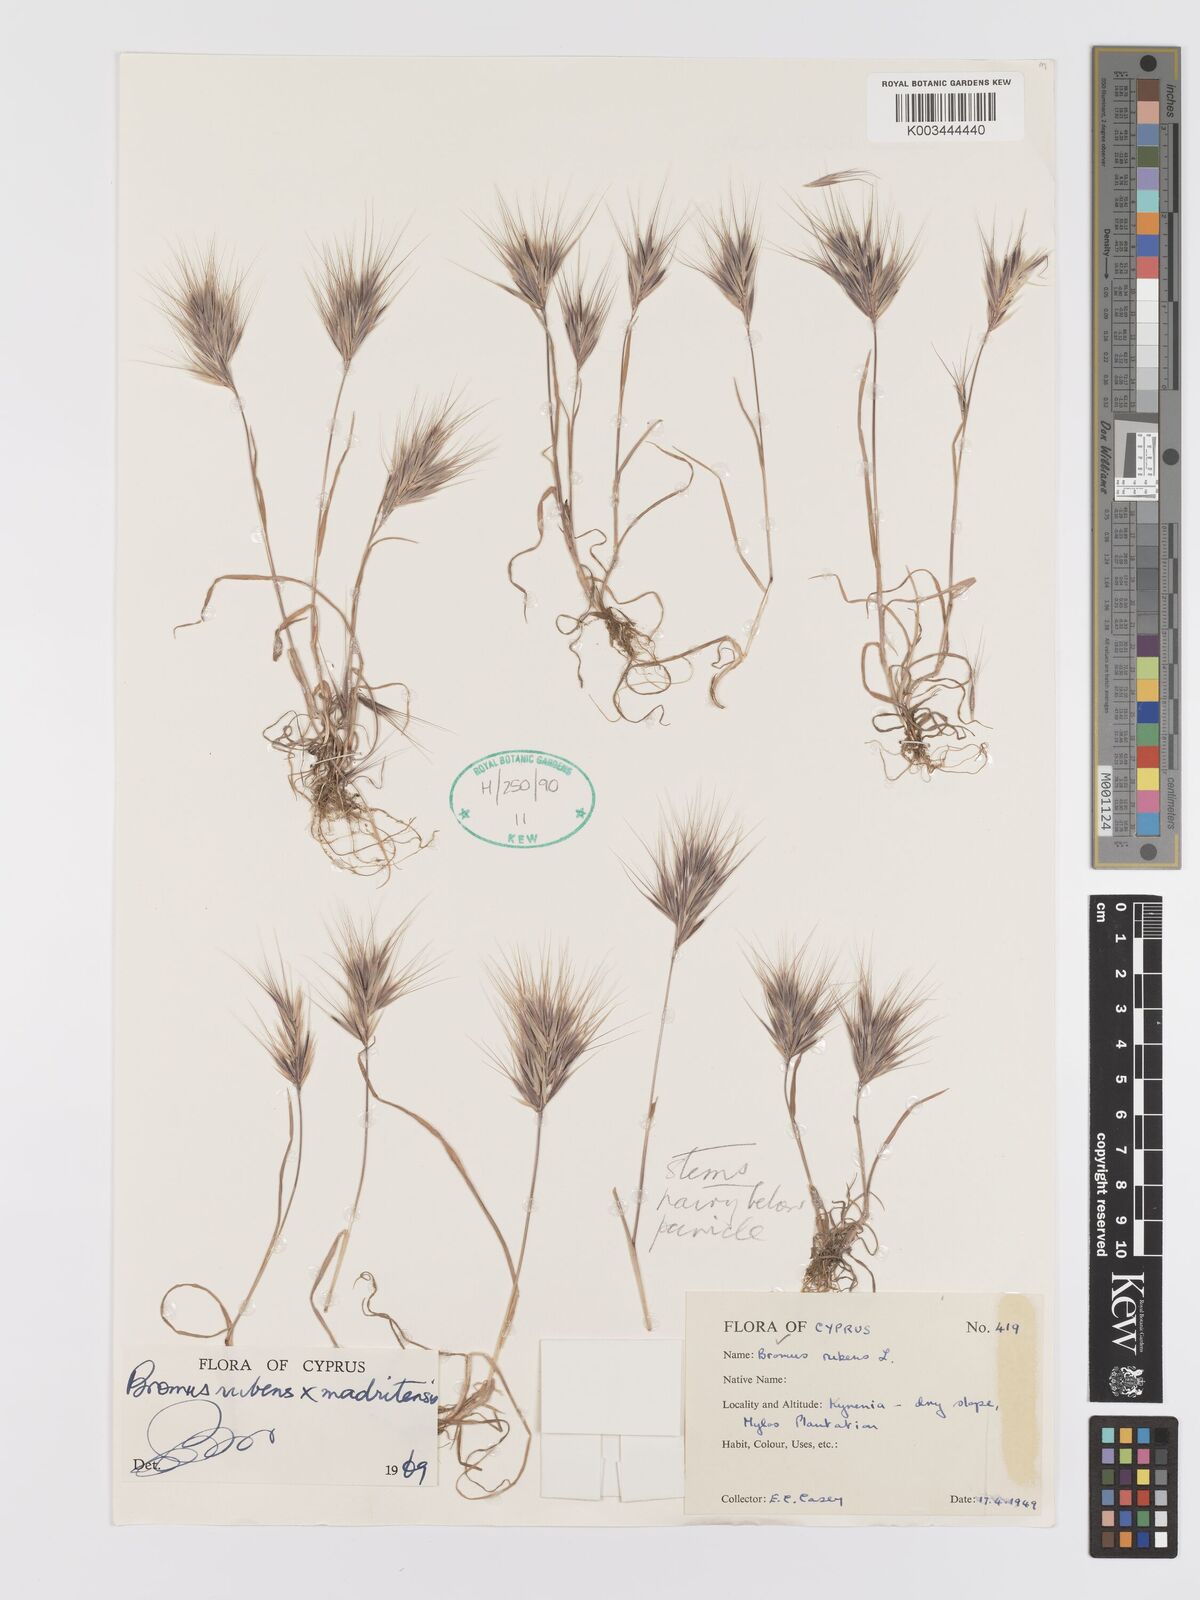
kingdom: Plantae
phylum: Tracheophyta
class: Liliopsida
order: Poales
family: Poaceae
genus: Bromus
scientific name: Bromus madritensis
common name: Compact brome
